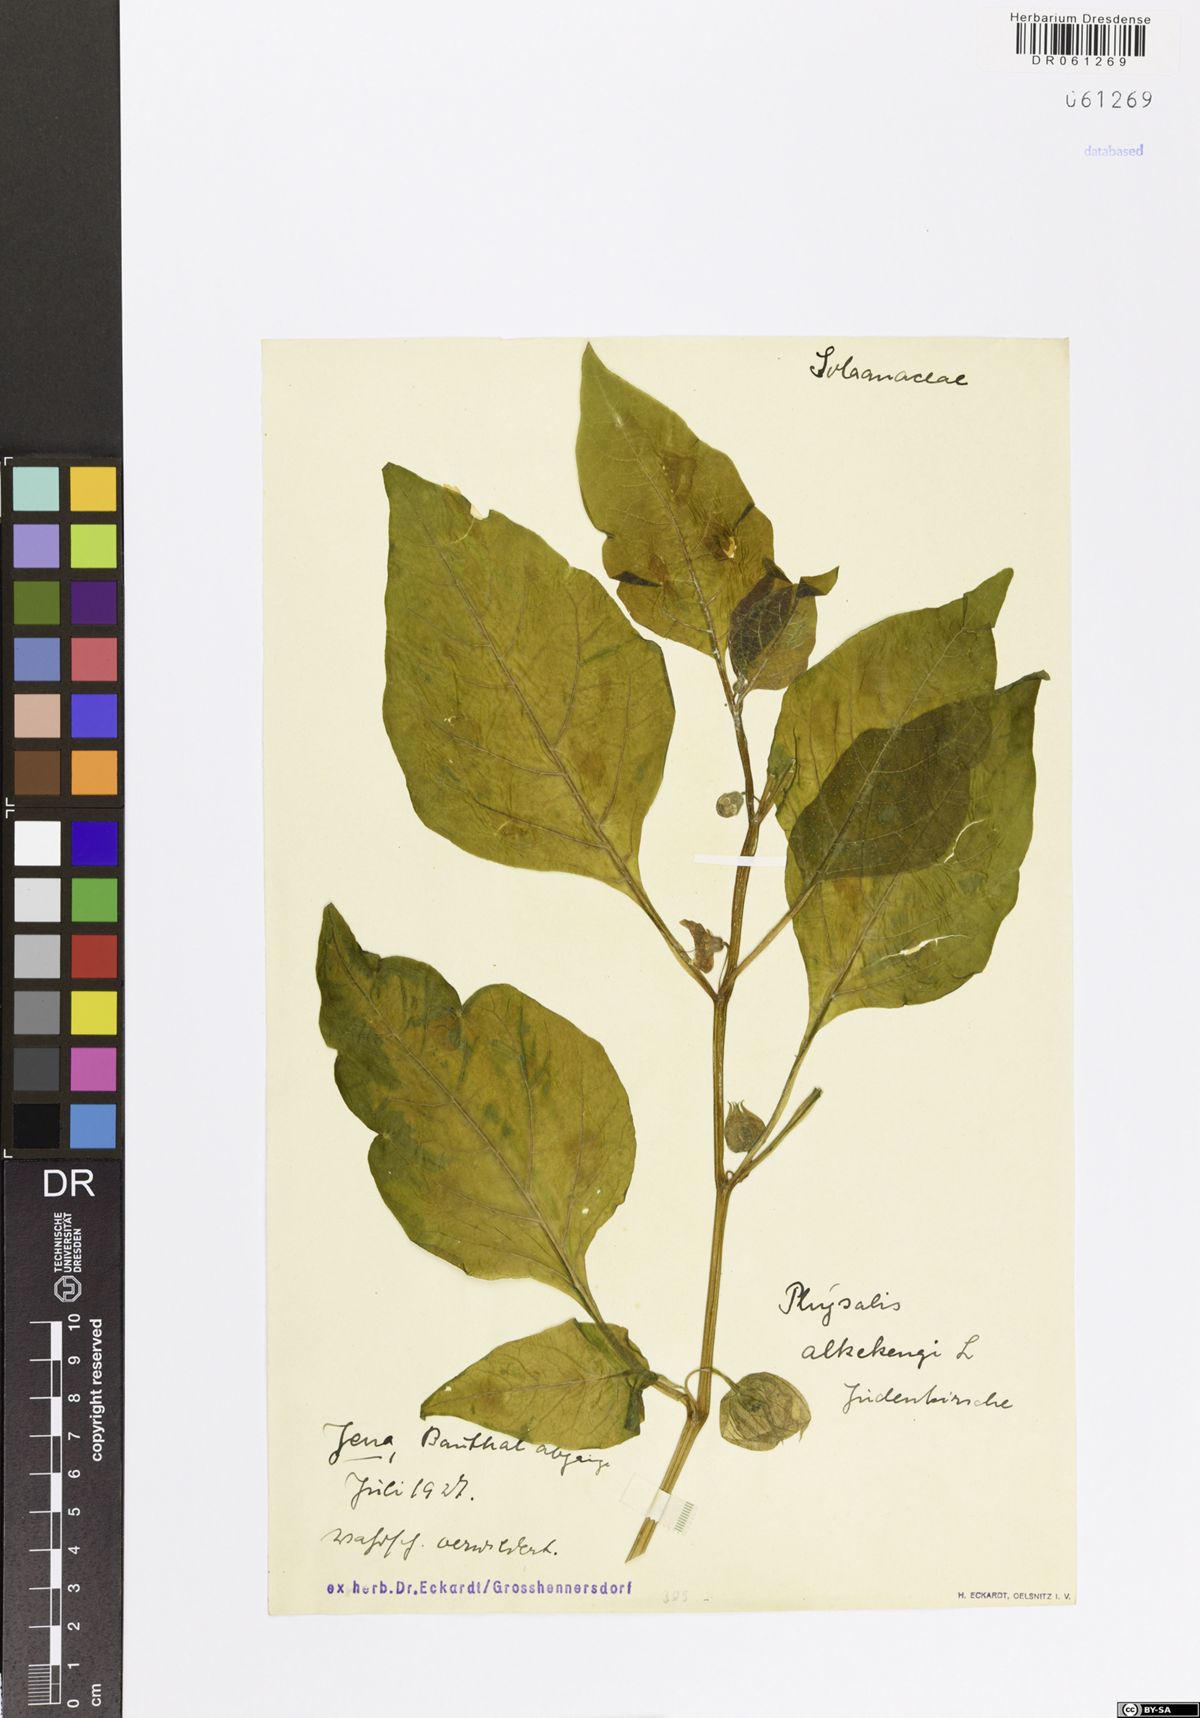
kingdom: Plantae
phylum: Tracheophyta
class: Magnoliopsida
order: Solanales
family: Solanaceae
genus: Alkekengi
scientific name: Alkekengi officinarum
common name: Japanese-lantern
